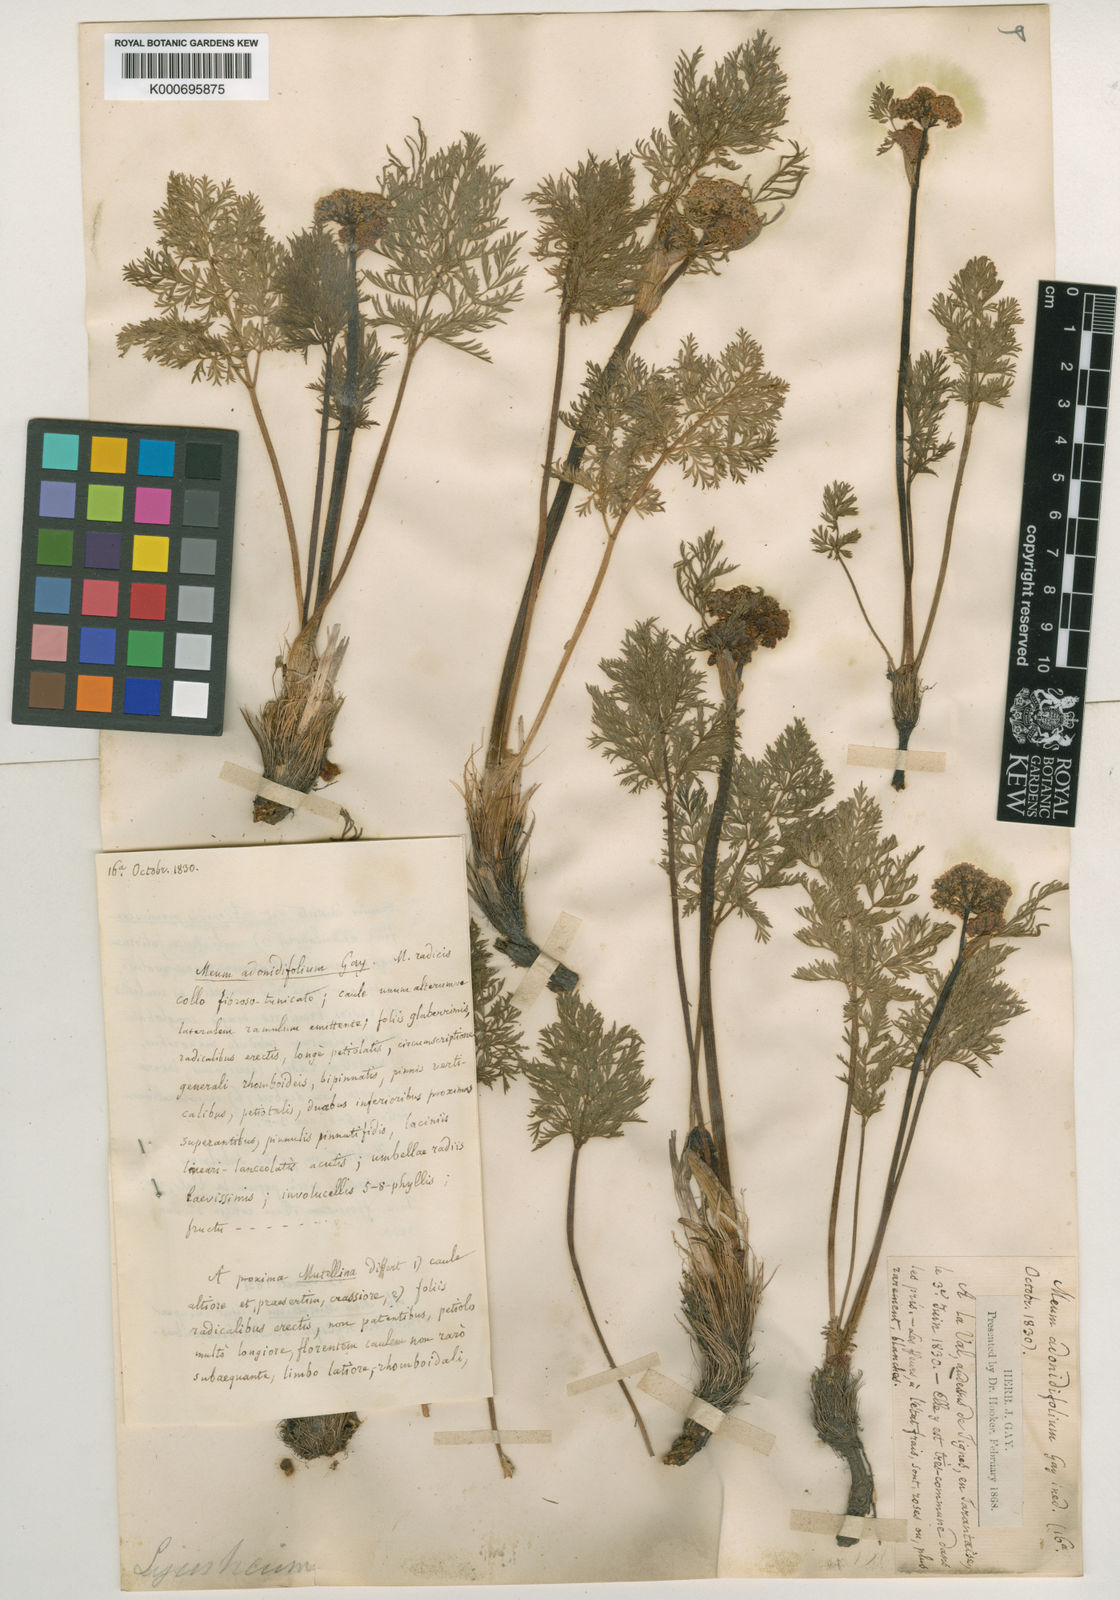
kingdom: Plantae
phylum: Tracheophyta
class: Magnoliopsida
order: Apiales
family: Apiaceae
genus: Mutellina
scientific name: Mutellina adonidifolia
